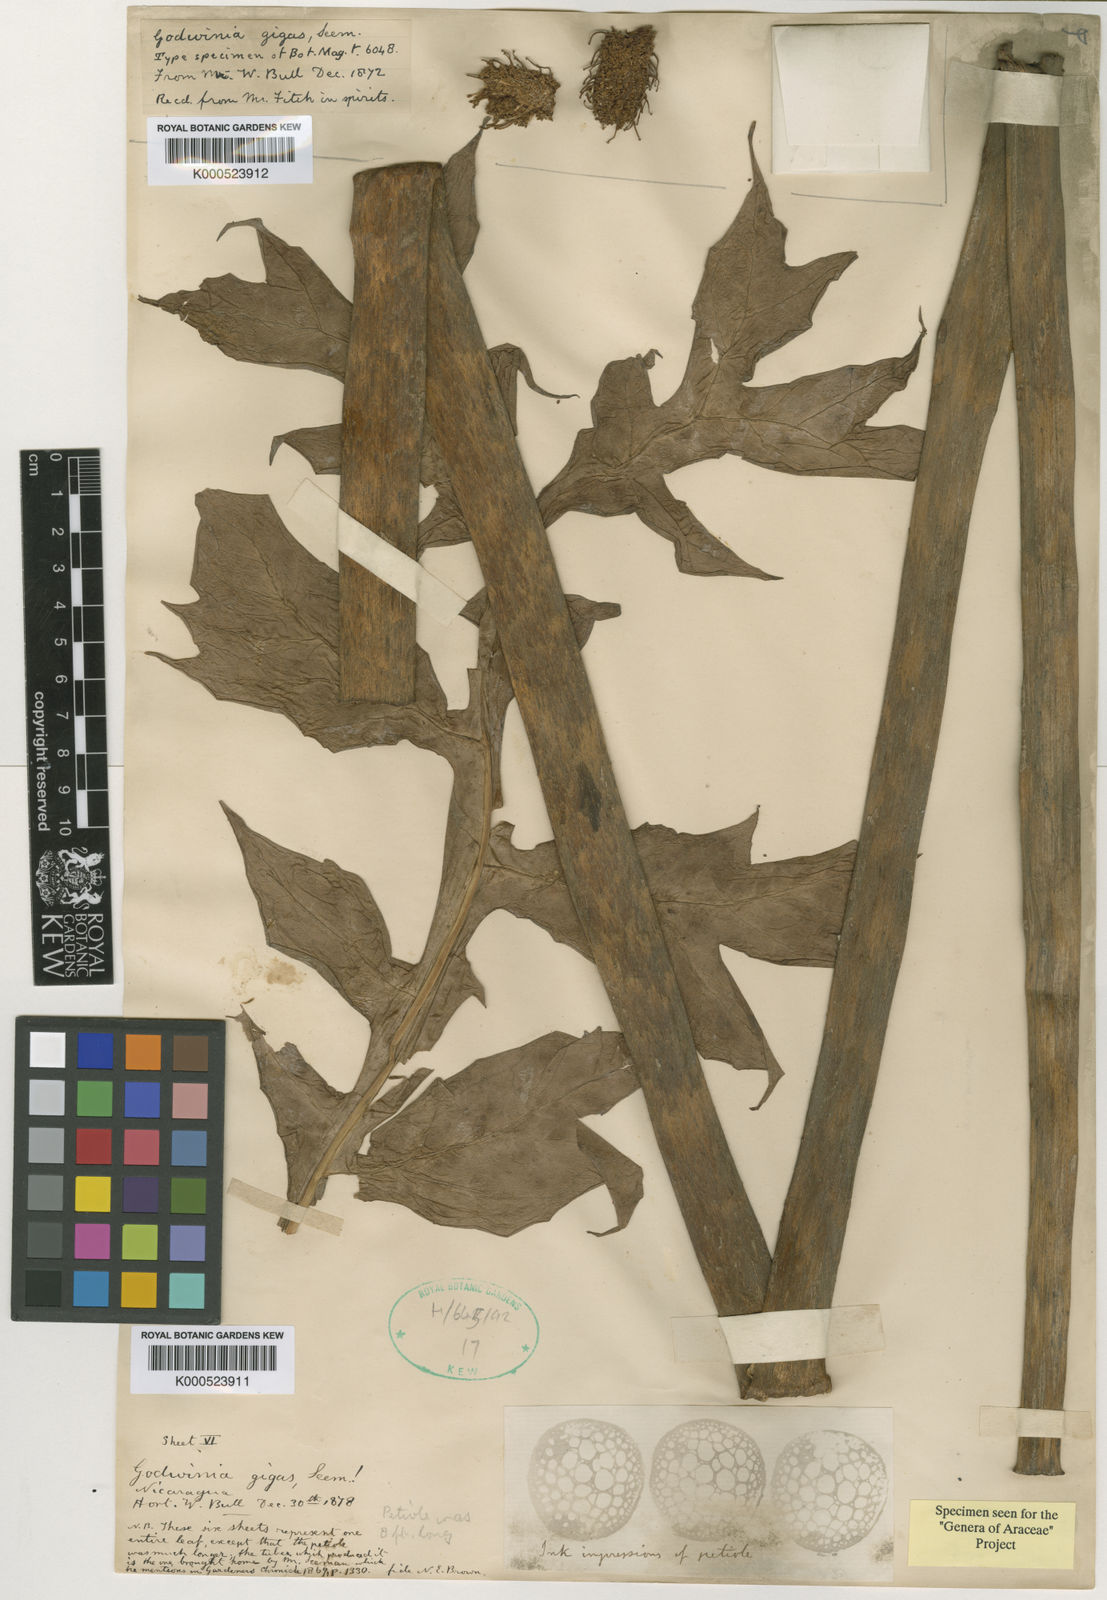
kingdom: Plantae
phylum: Tracheophyta
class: Liliopsida
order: Alismatales
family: Araceae
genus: Dracontium
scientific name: Dracontium gigas
